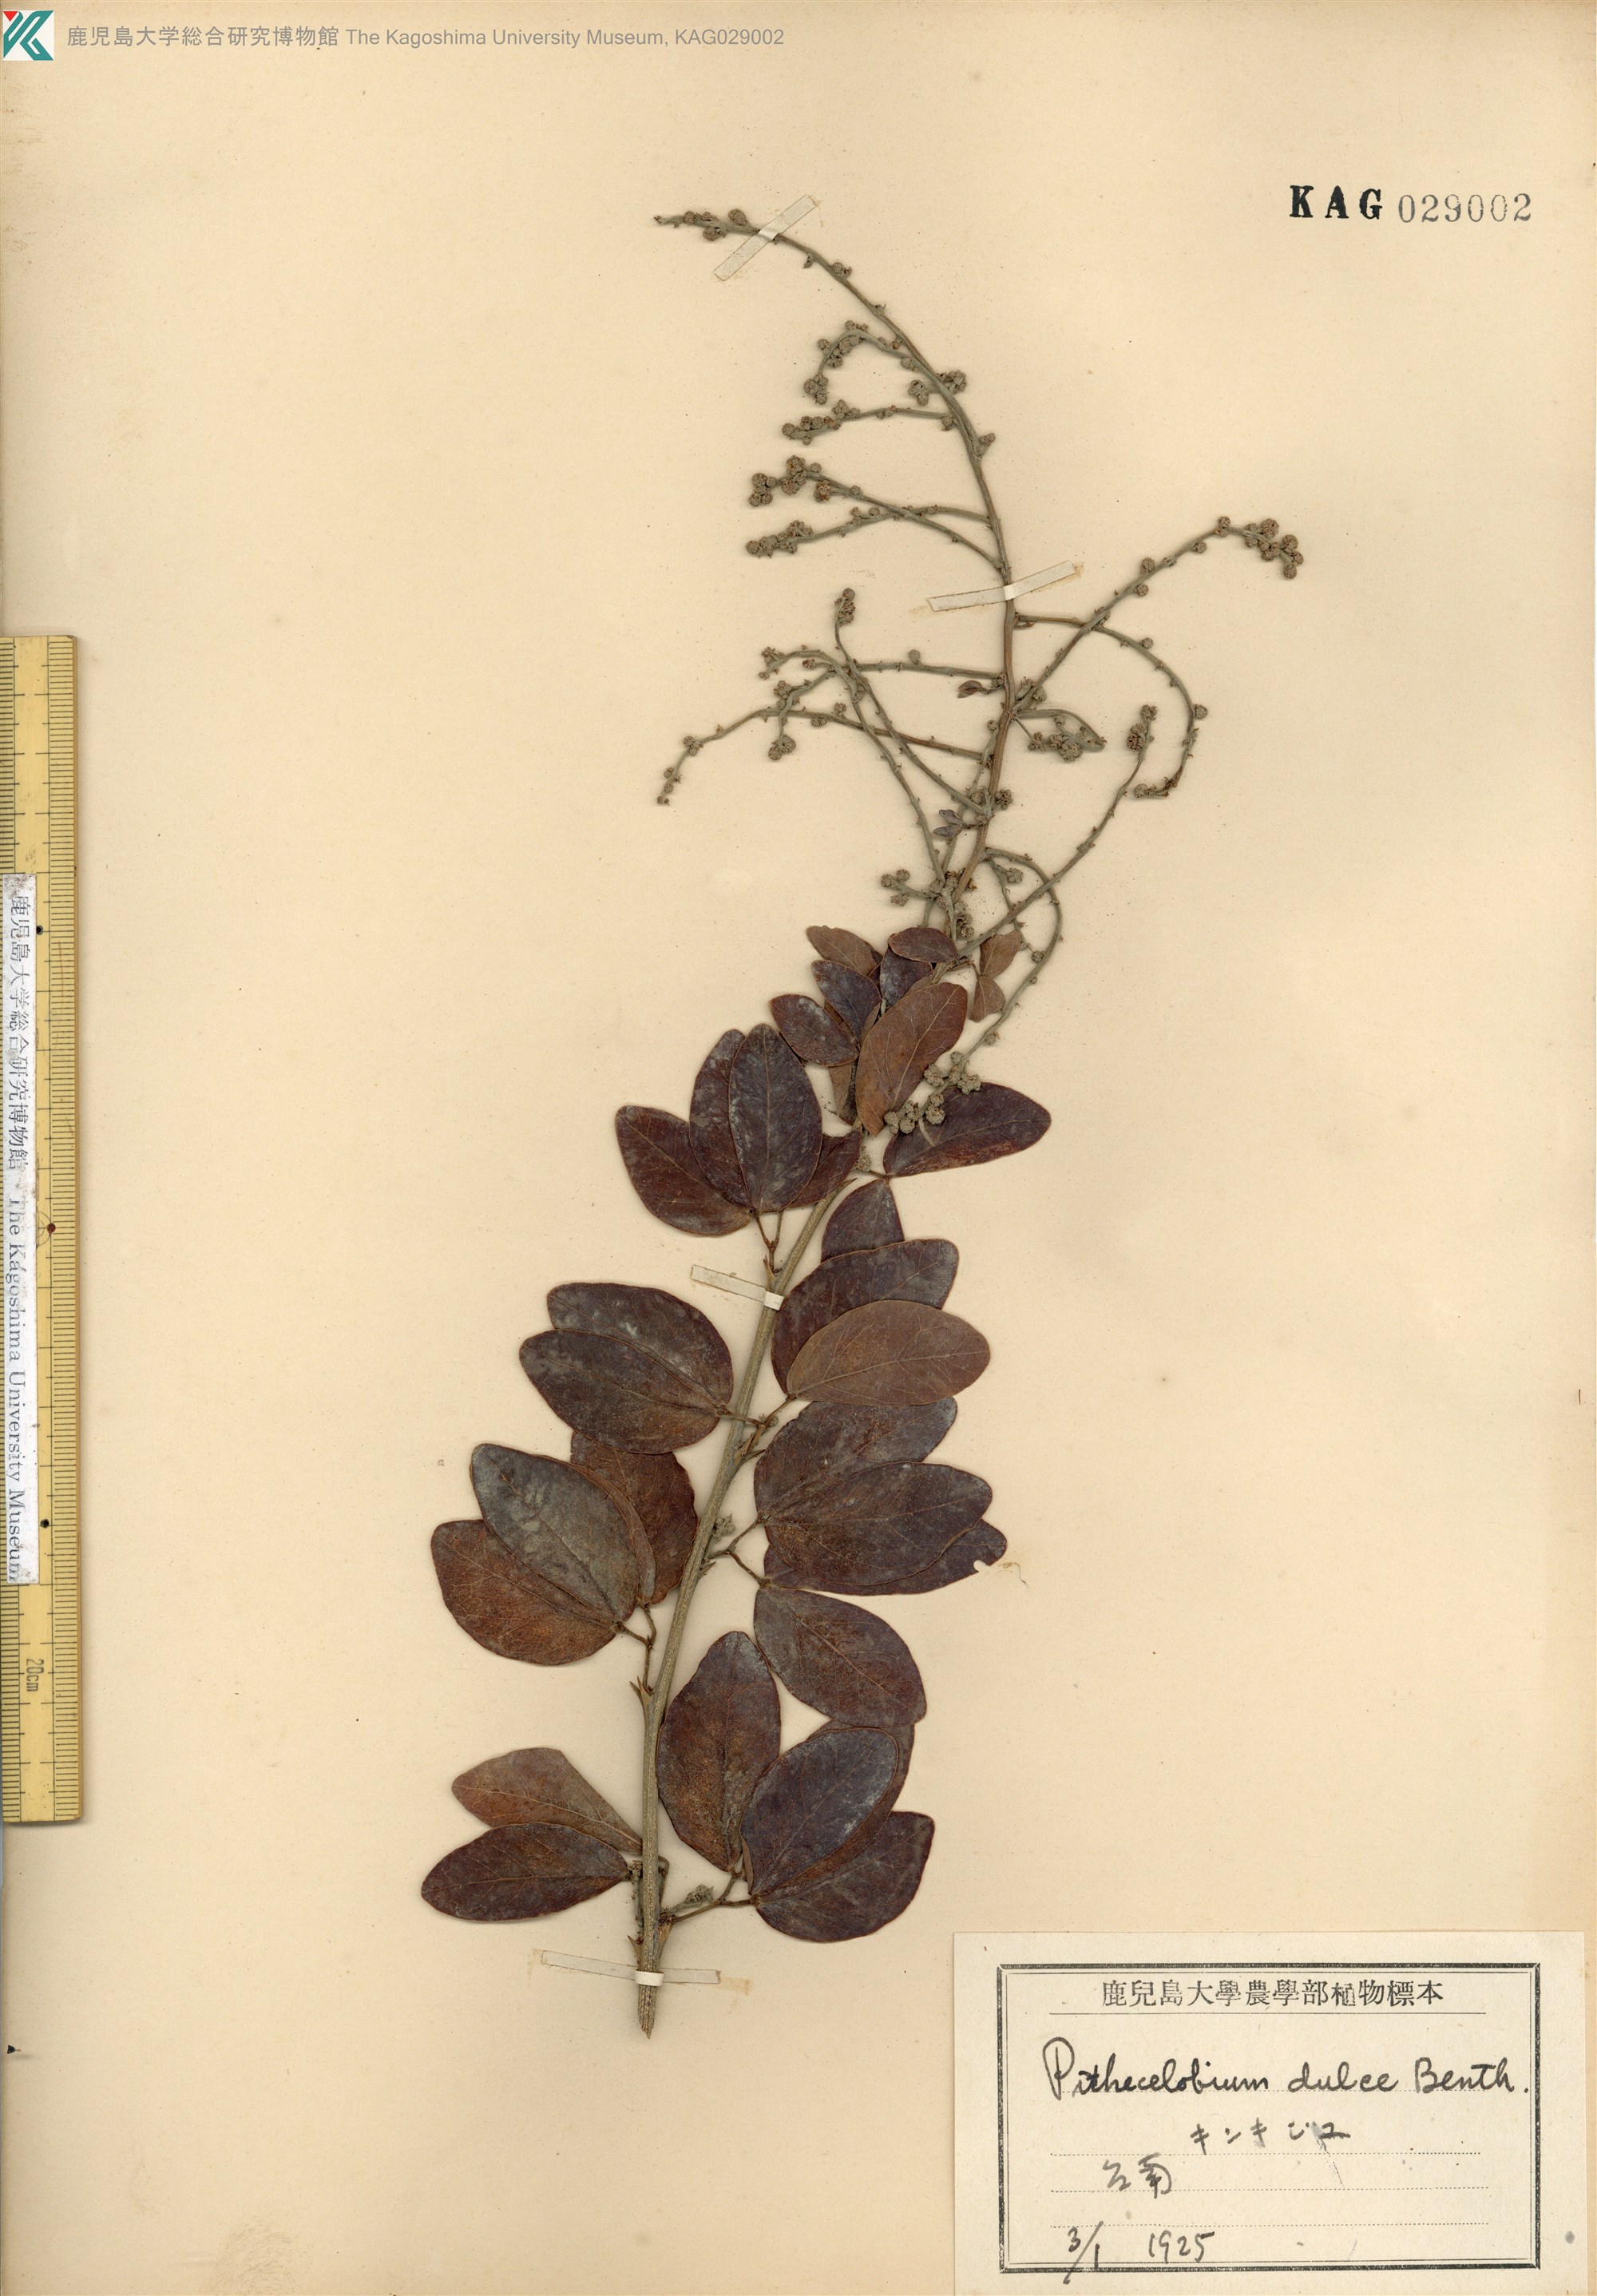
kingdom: Plantae
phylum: Tracheophyta
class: Magnoliopsida
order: Fabales
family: Fabaceae
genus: Pithecellobium
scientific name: Pithecellobium dulce
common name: Monkeypod
